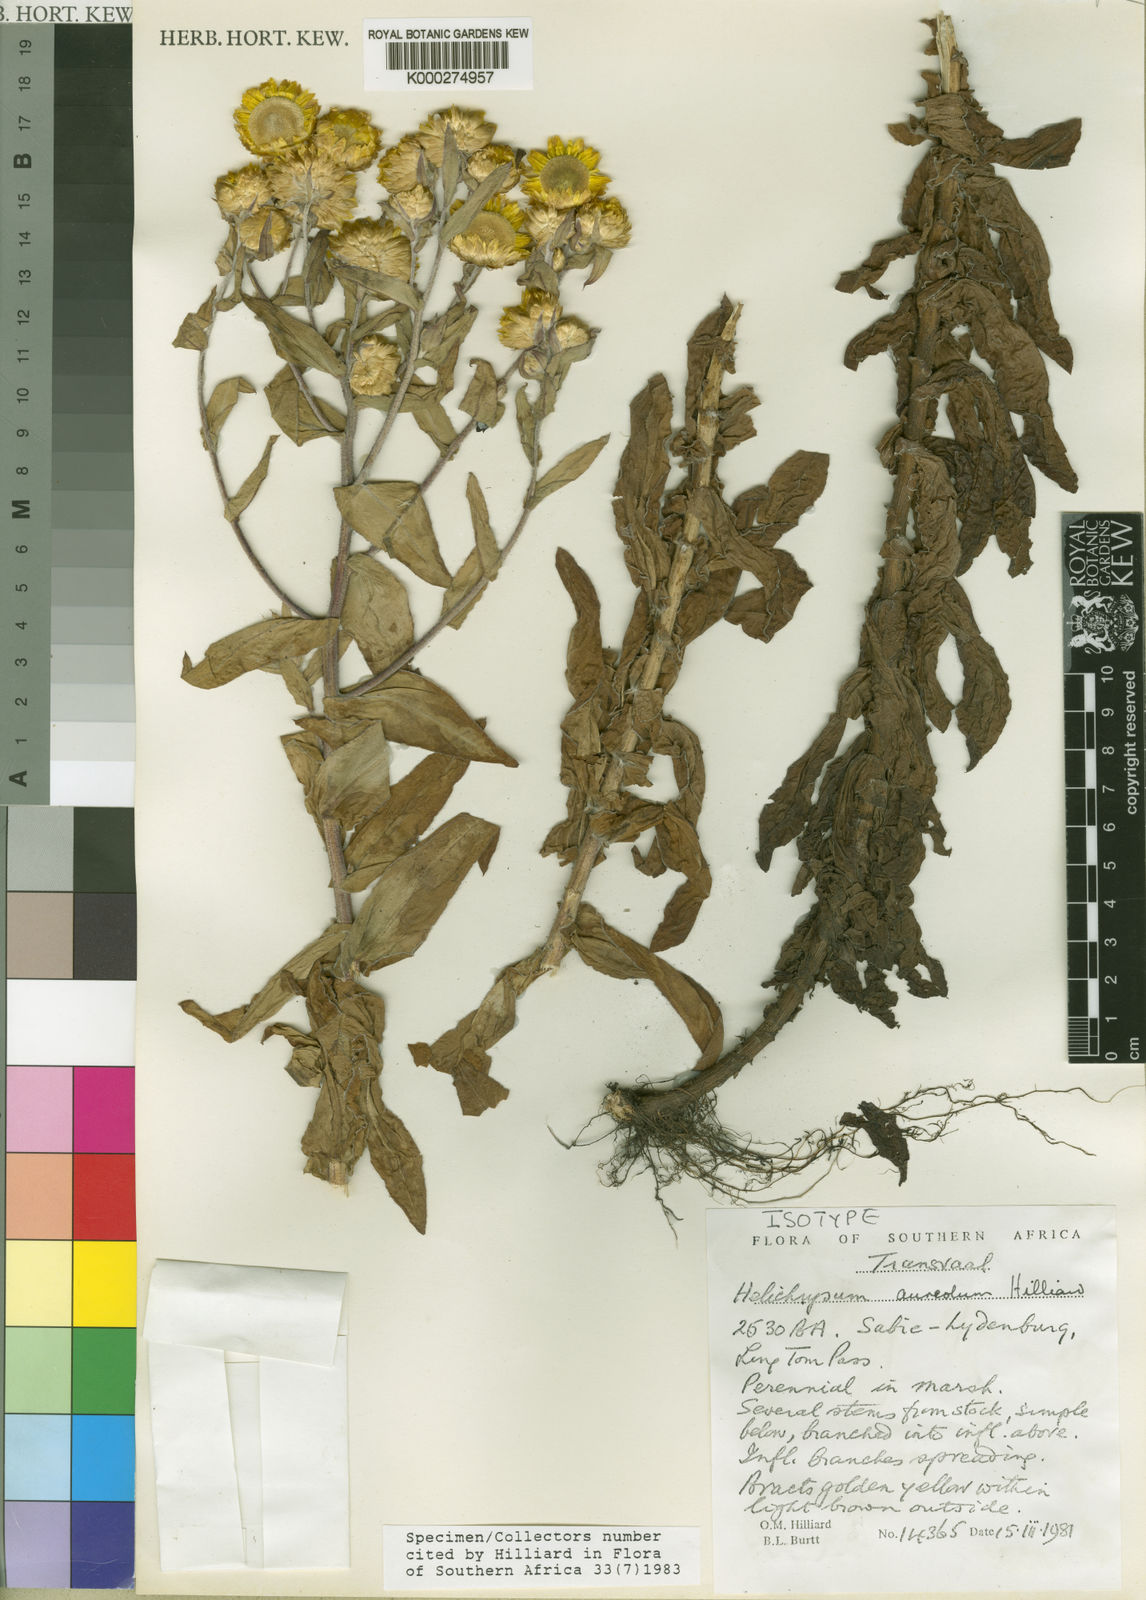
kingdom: Plantae
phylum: Tracheophyta
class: Magnoliopsida
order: Asterales
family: Asteraceae
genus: Helichrysum
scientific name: Helichrysum aureolum
